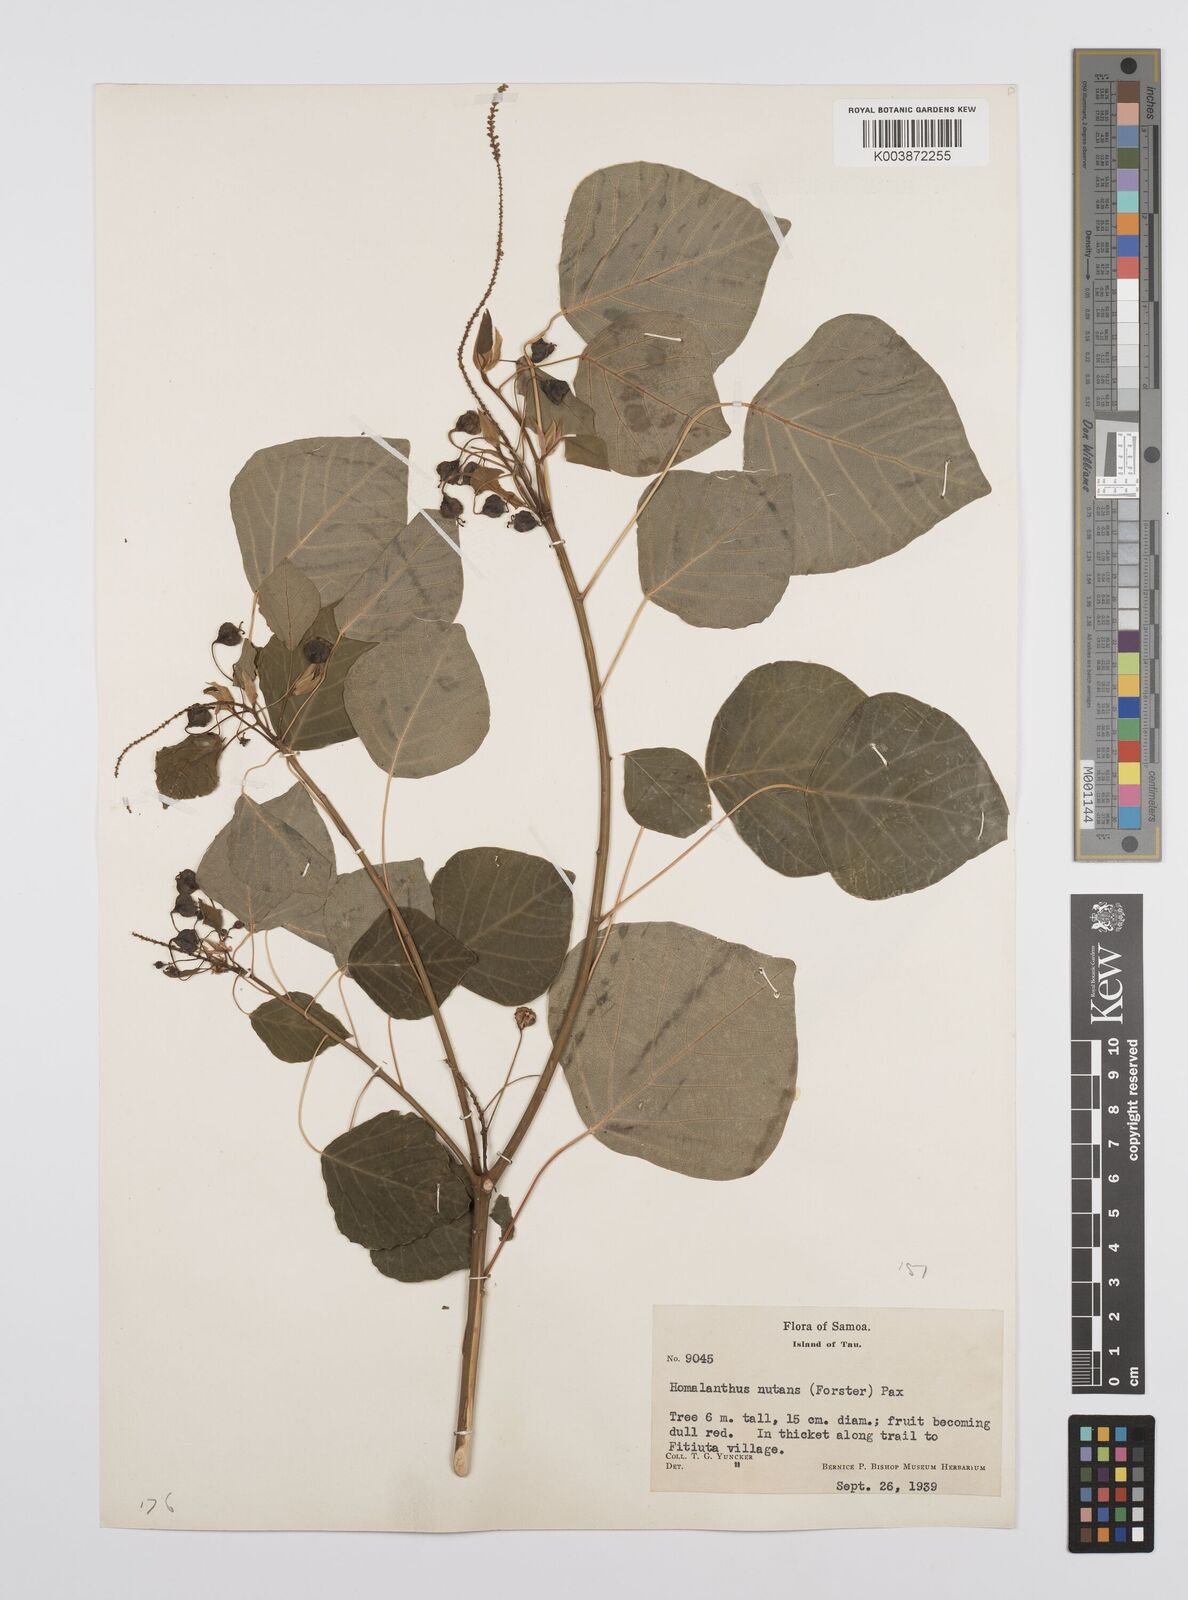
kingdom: Plantae
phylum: Tracheophyta
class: Magnoliopsida
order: Malpighiales
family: Euphorbiaceae
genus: Homalanthus
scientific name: Homalanthus nutans
